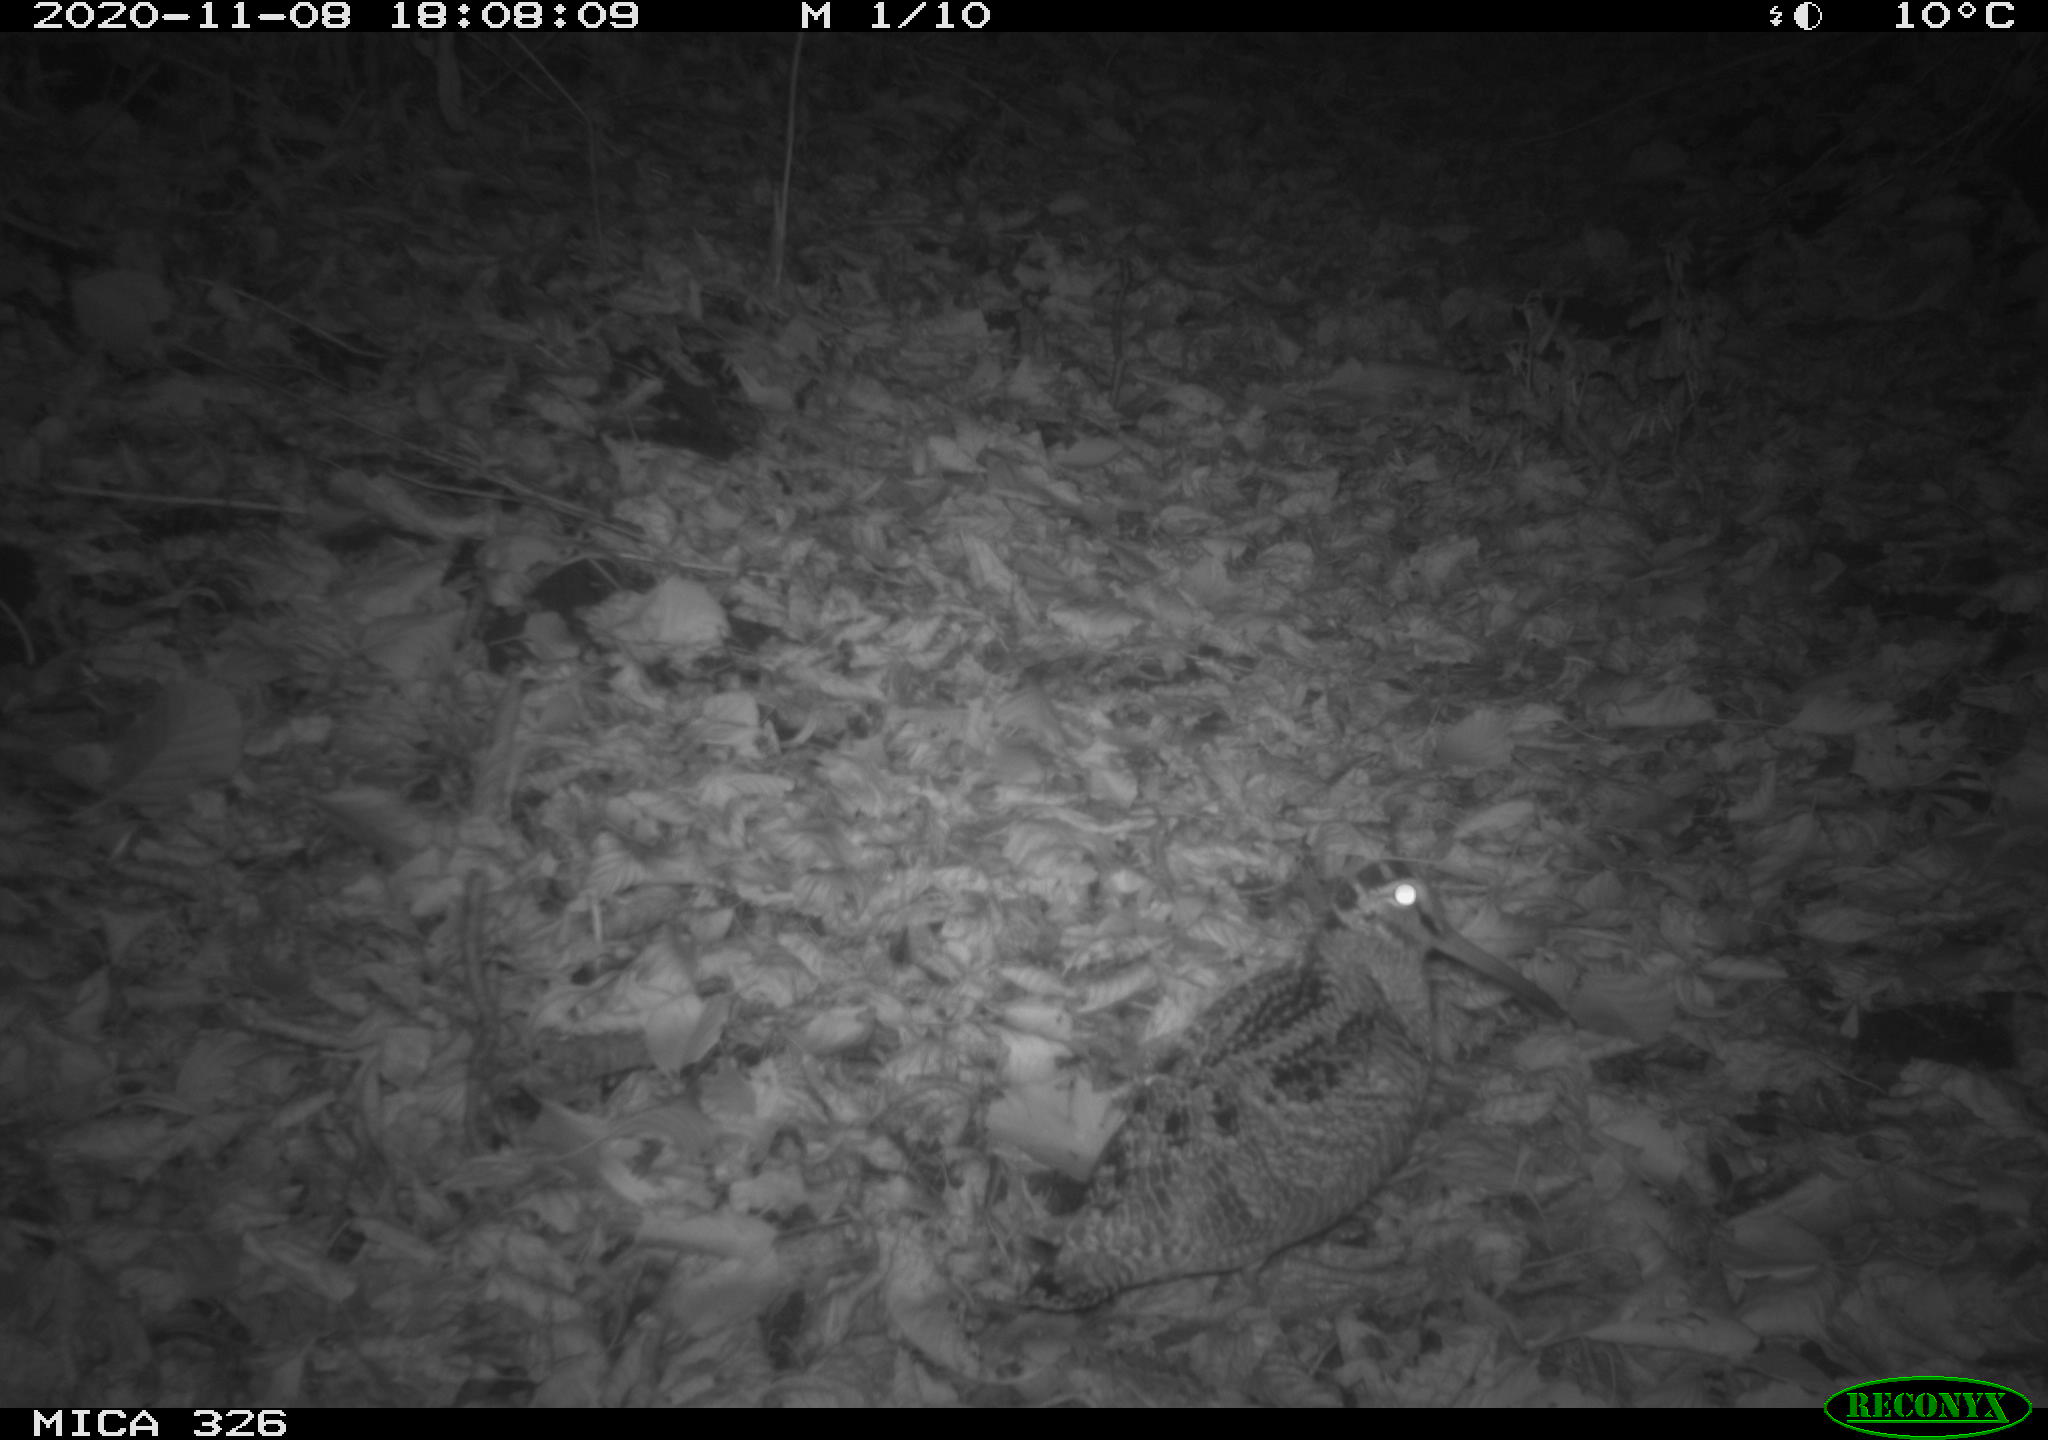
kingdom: Animalia
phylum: Chordata
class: Aves
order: Charadriiformes
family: Scolopacidae
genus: Scolopax
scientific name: Scolopax rusticola
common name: Eurasian woodcock
